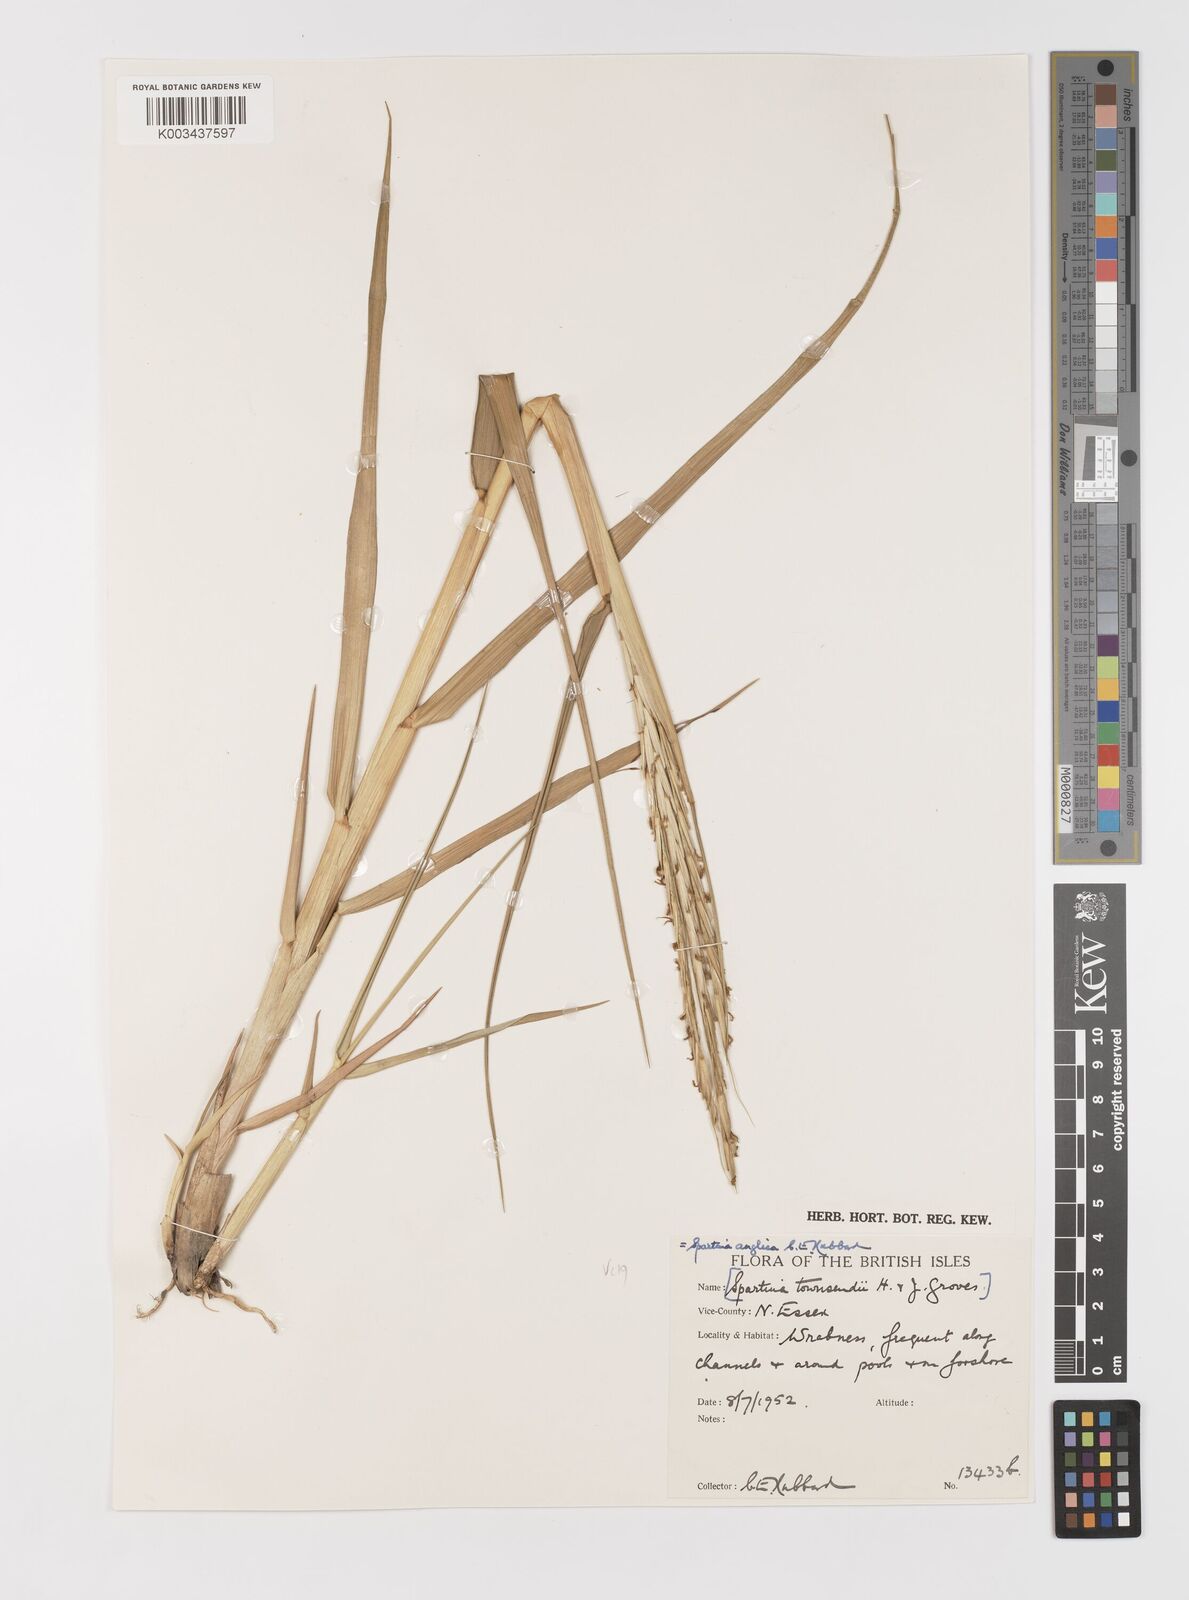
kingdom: Plantae
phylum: Tracheophyta
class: Liliopsida
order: Poales
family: Poaceae
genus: Sporobolus
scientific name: Sporobolus anglicus
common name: English cordgrass
